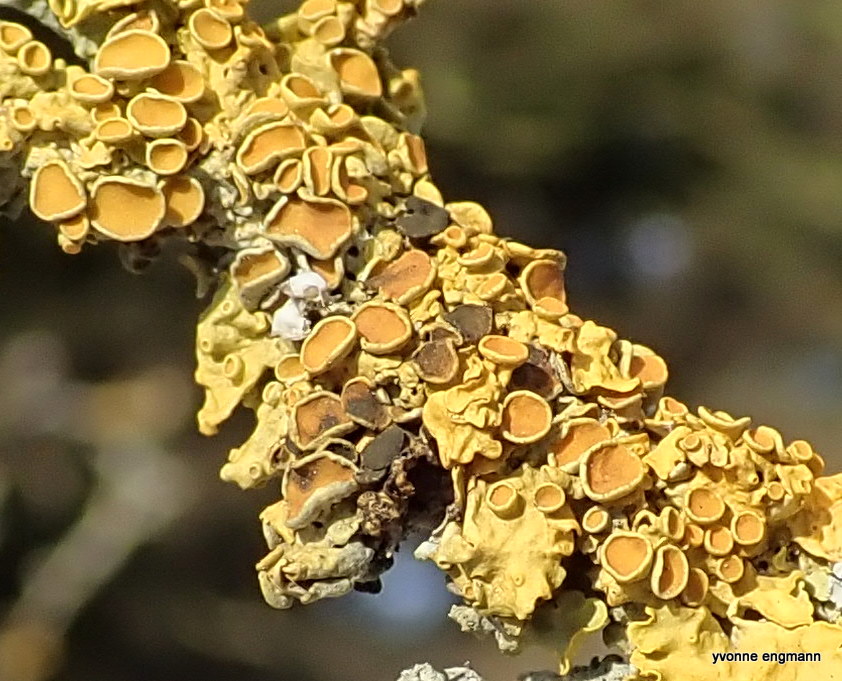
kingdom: Fungi
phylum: Ascomycota
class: Dothideomycetes
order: Mycosphaerellales
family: Teratosphaeriaceae
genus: Xanthoriicola
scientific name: Xanthoriicola physciae
